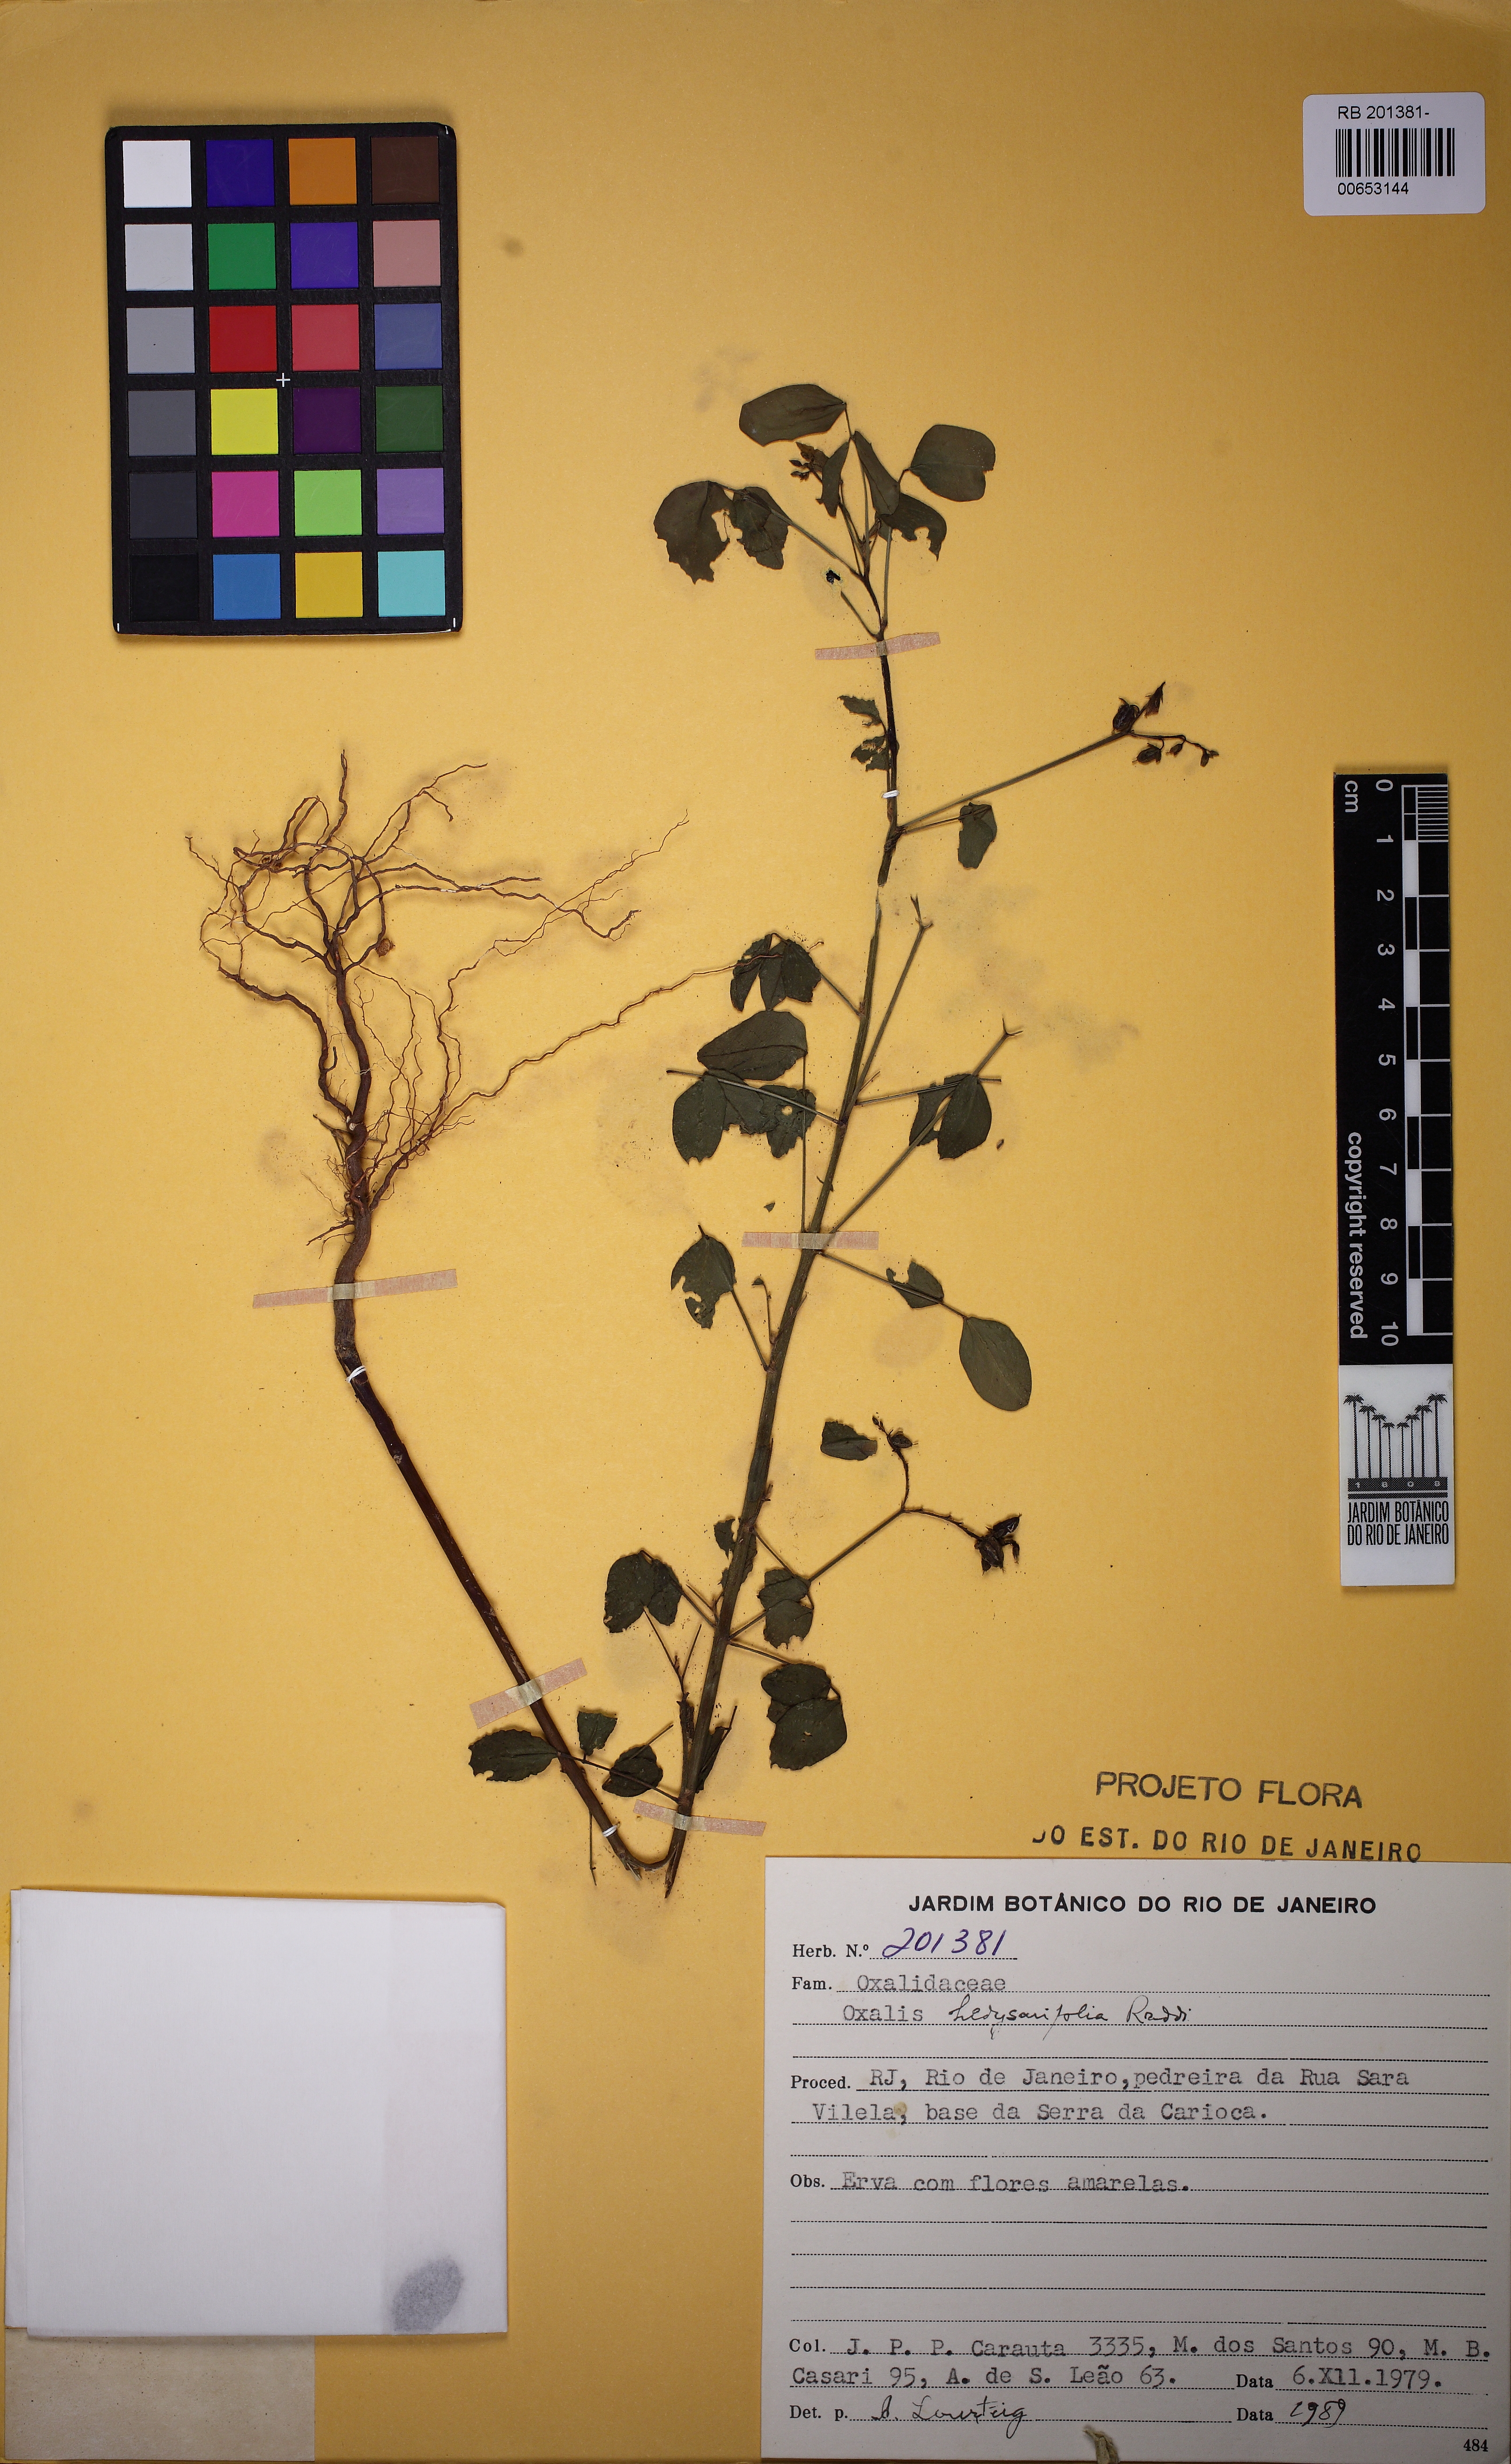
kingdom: Plantae
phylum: Tracheophyta
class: Magnoliopsida
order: Oxalidales
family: Oxalidaceae
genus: Oxalis
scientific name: Oxalis frutescens
